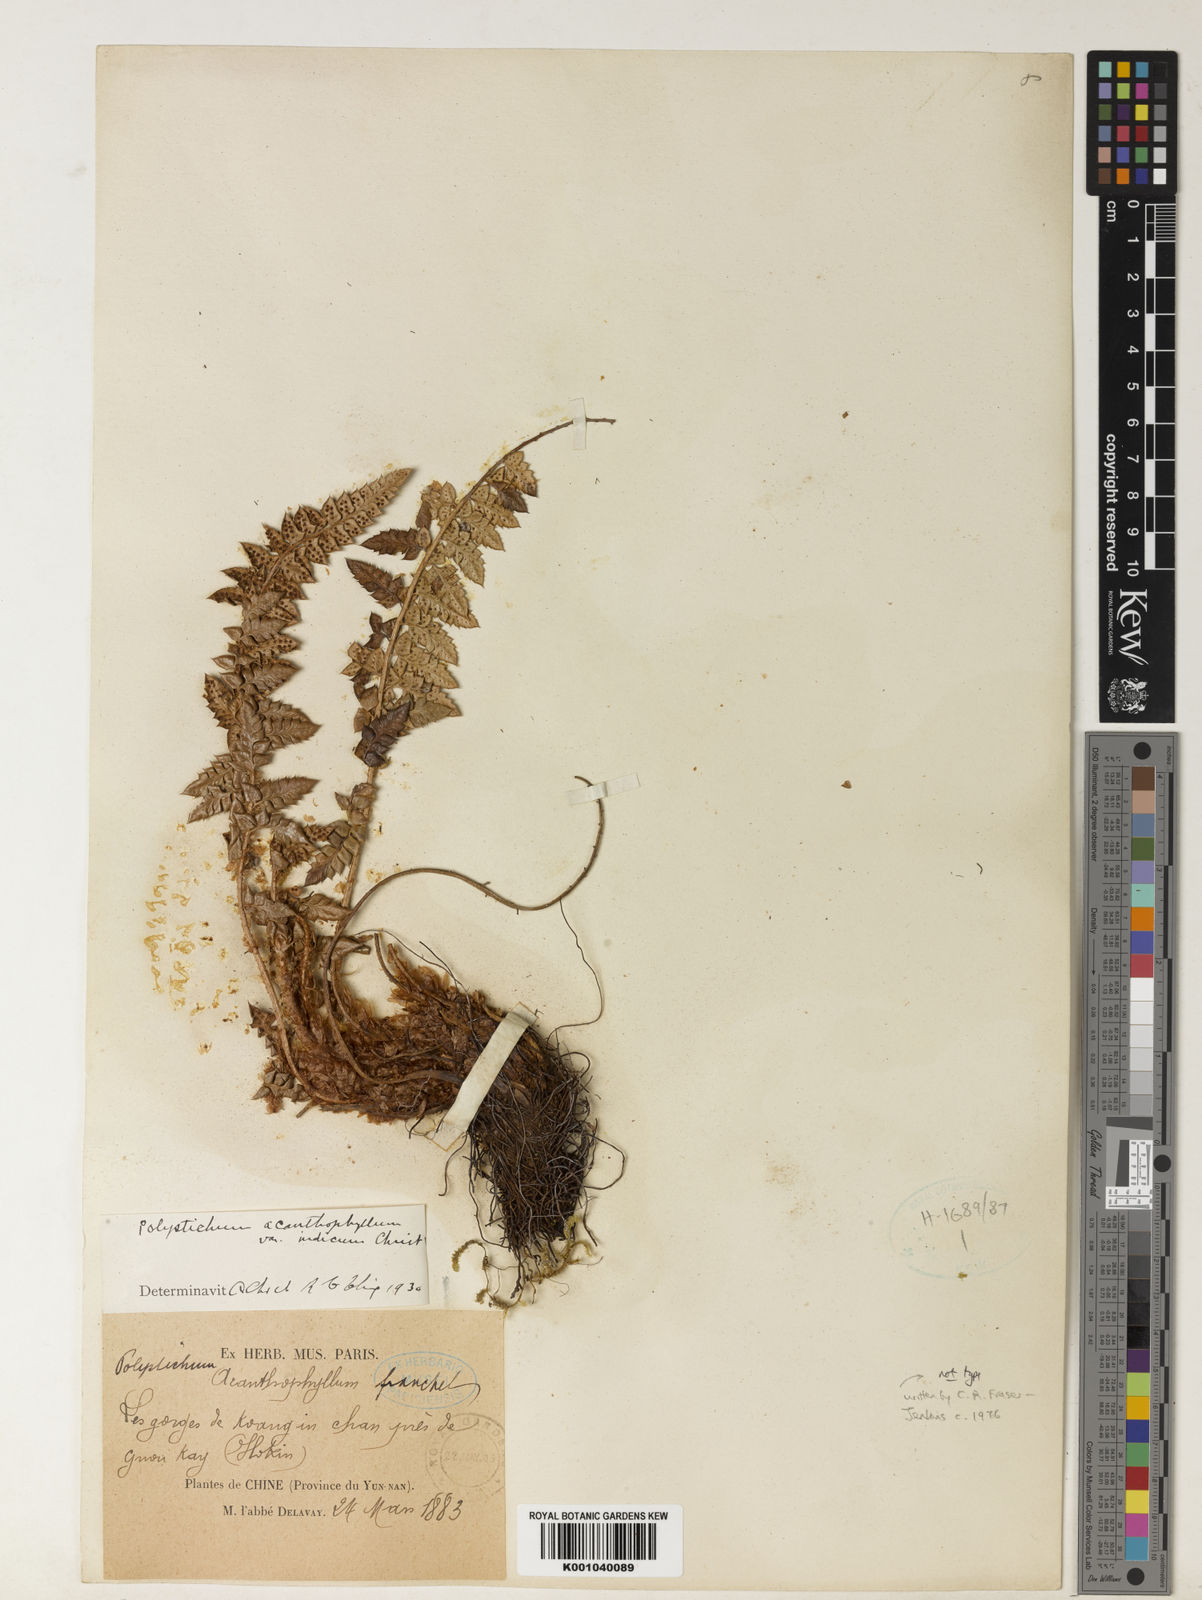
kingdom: Plantae
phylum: Tracheophyta
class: Polypodiopsida
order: Polypodiales
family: Dryopteridaceae
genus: Polystichum
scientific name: Polystichum acanthophyllum
